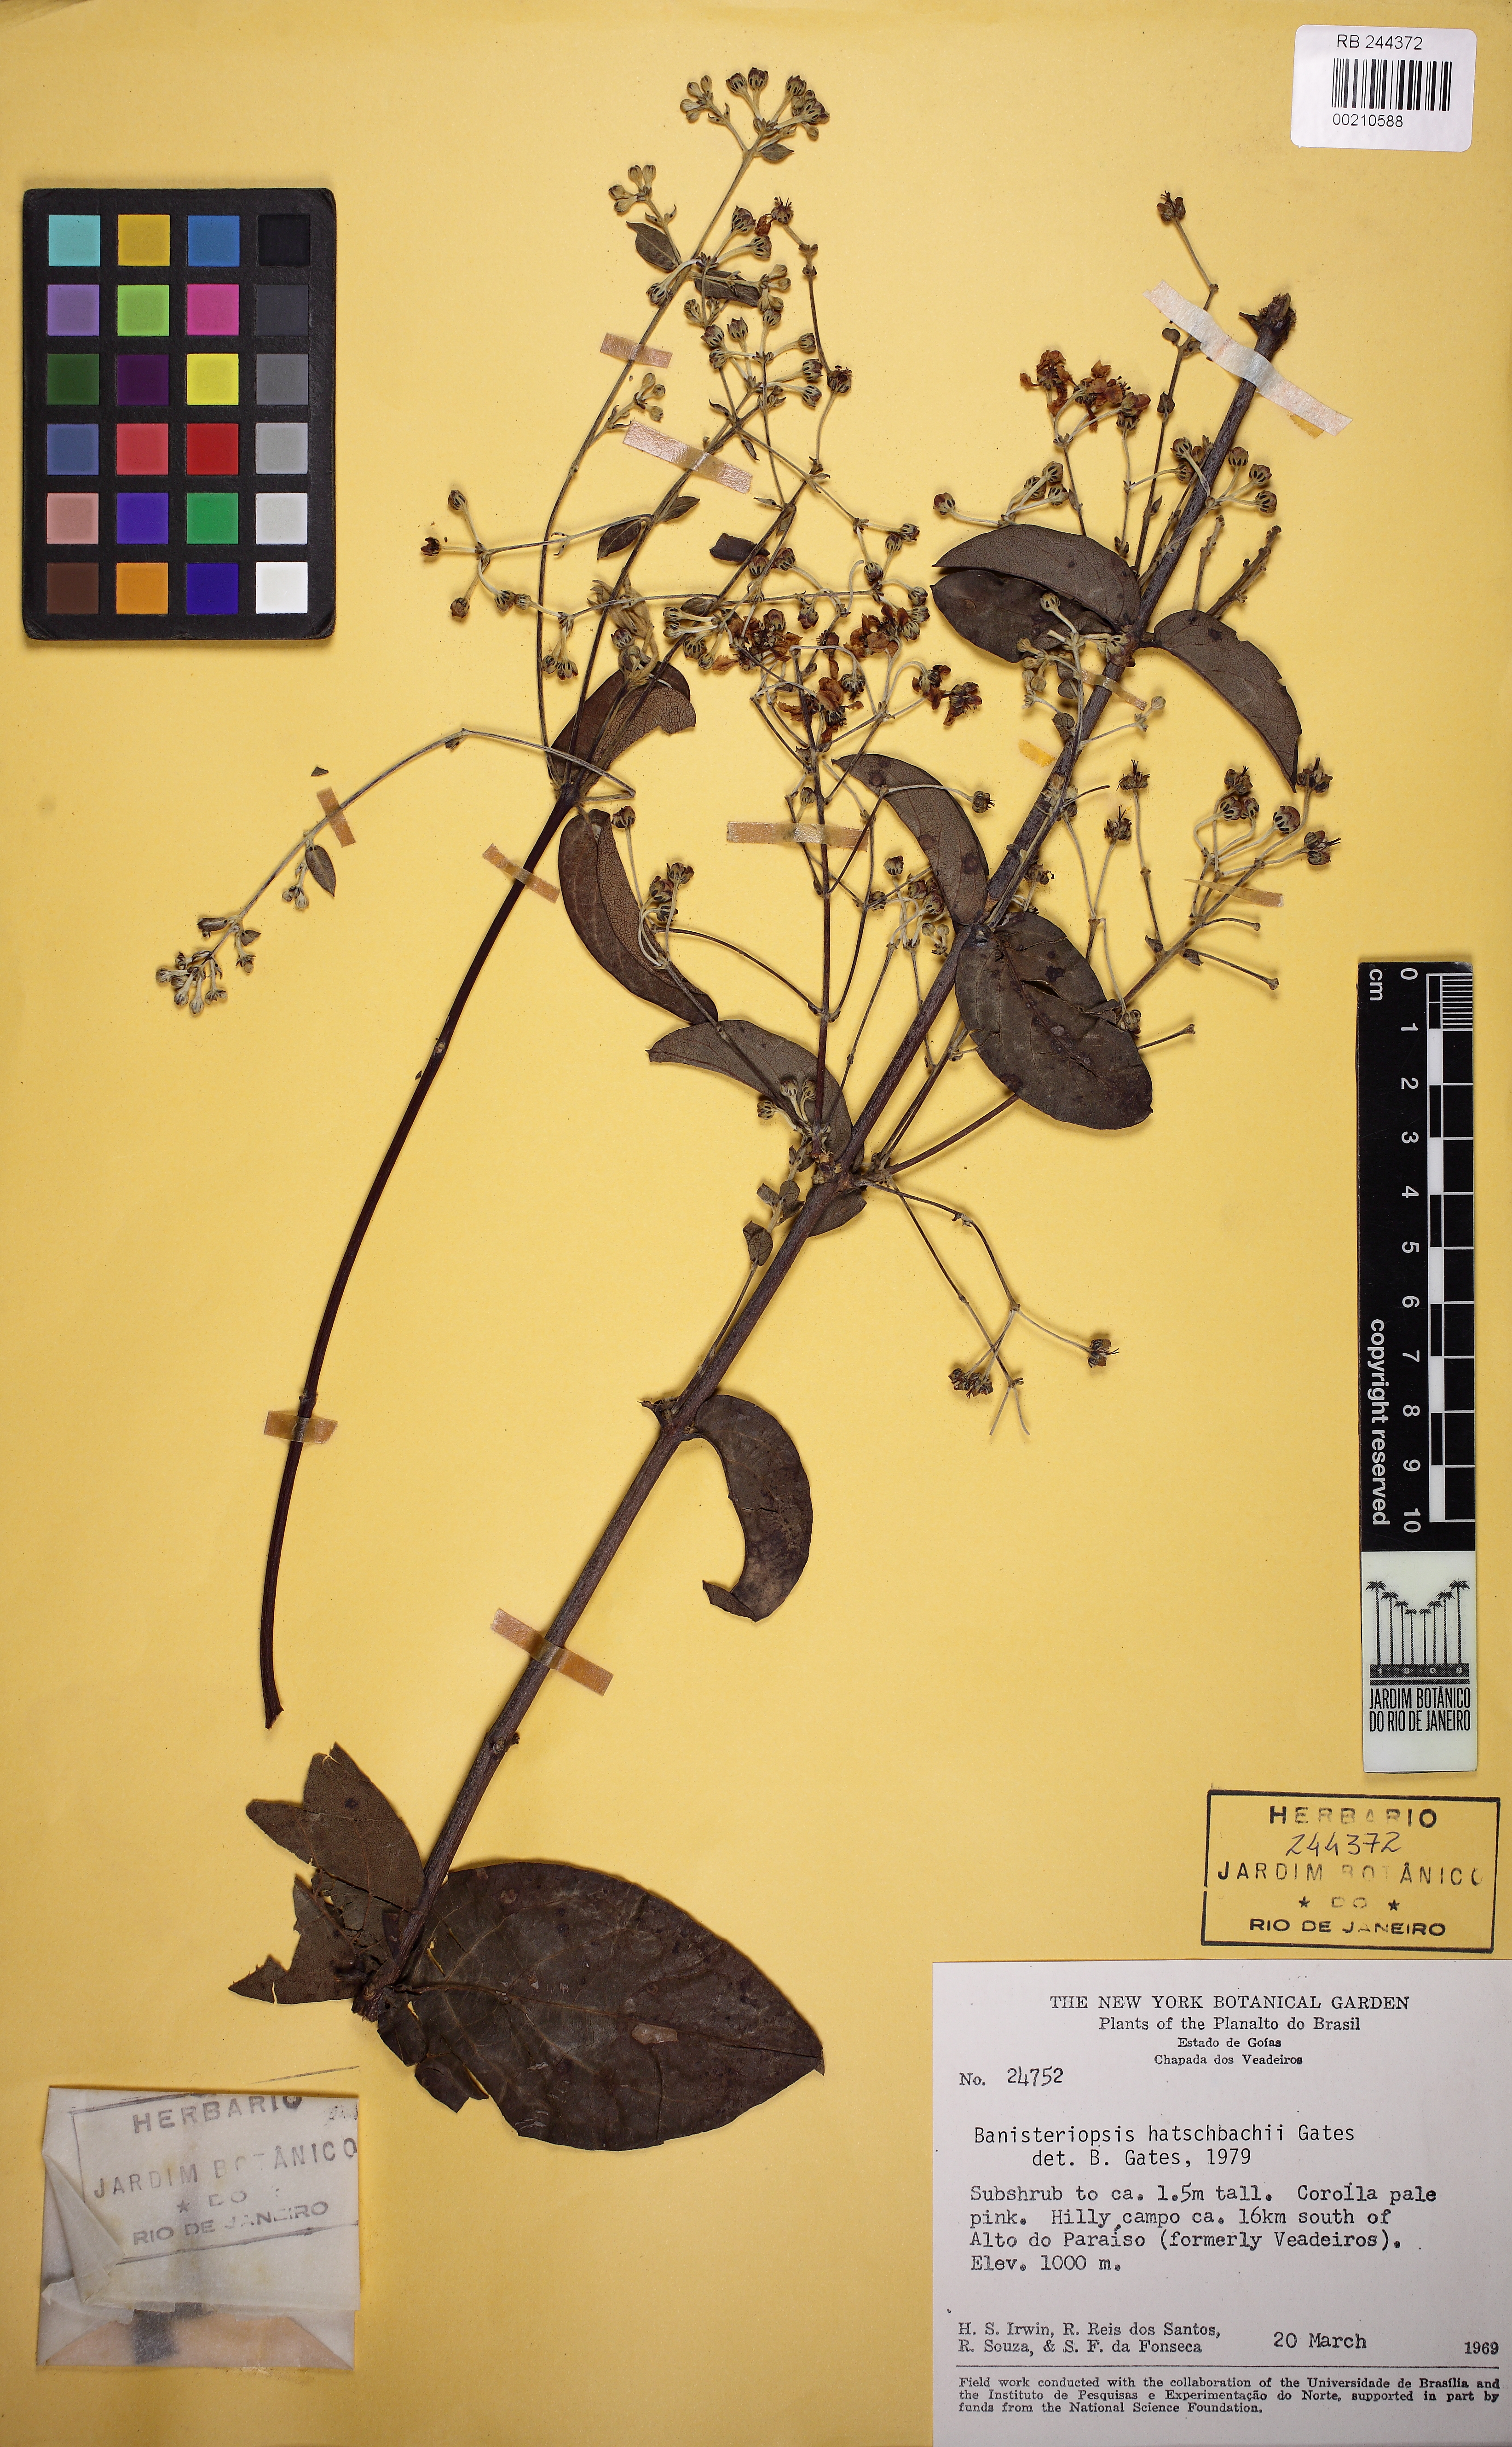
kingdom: Plantae
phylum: Tracheophyta
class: Magnoliopsida
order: Malpighiales
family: Malpighiaceae
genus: Banisteriopsis
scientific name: Banisteriopsis hatschbachii
